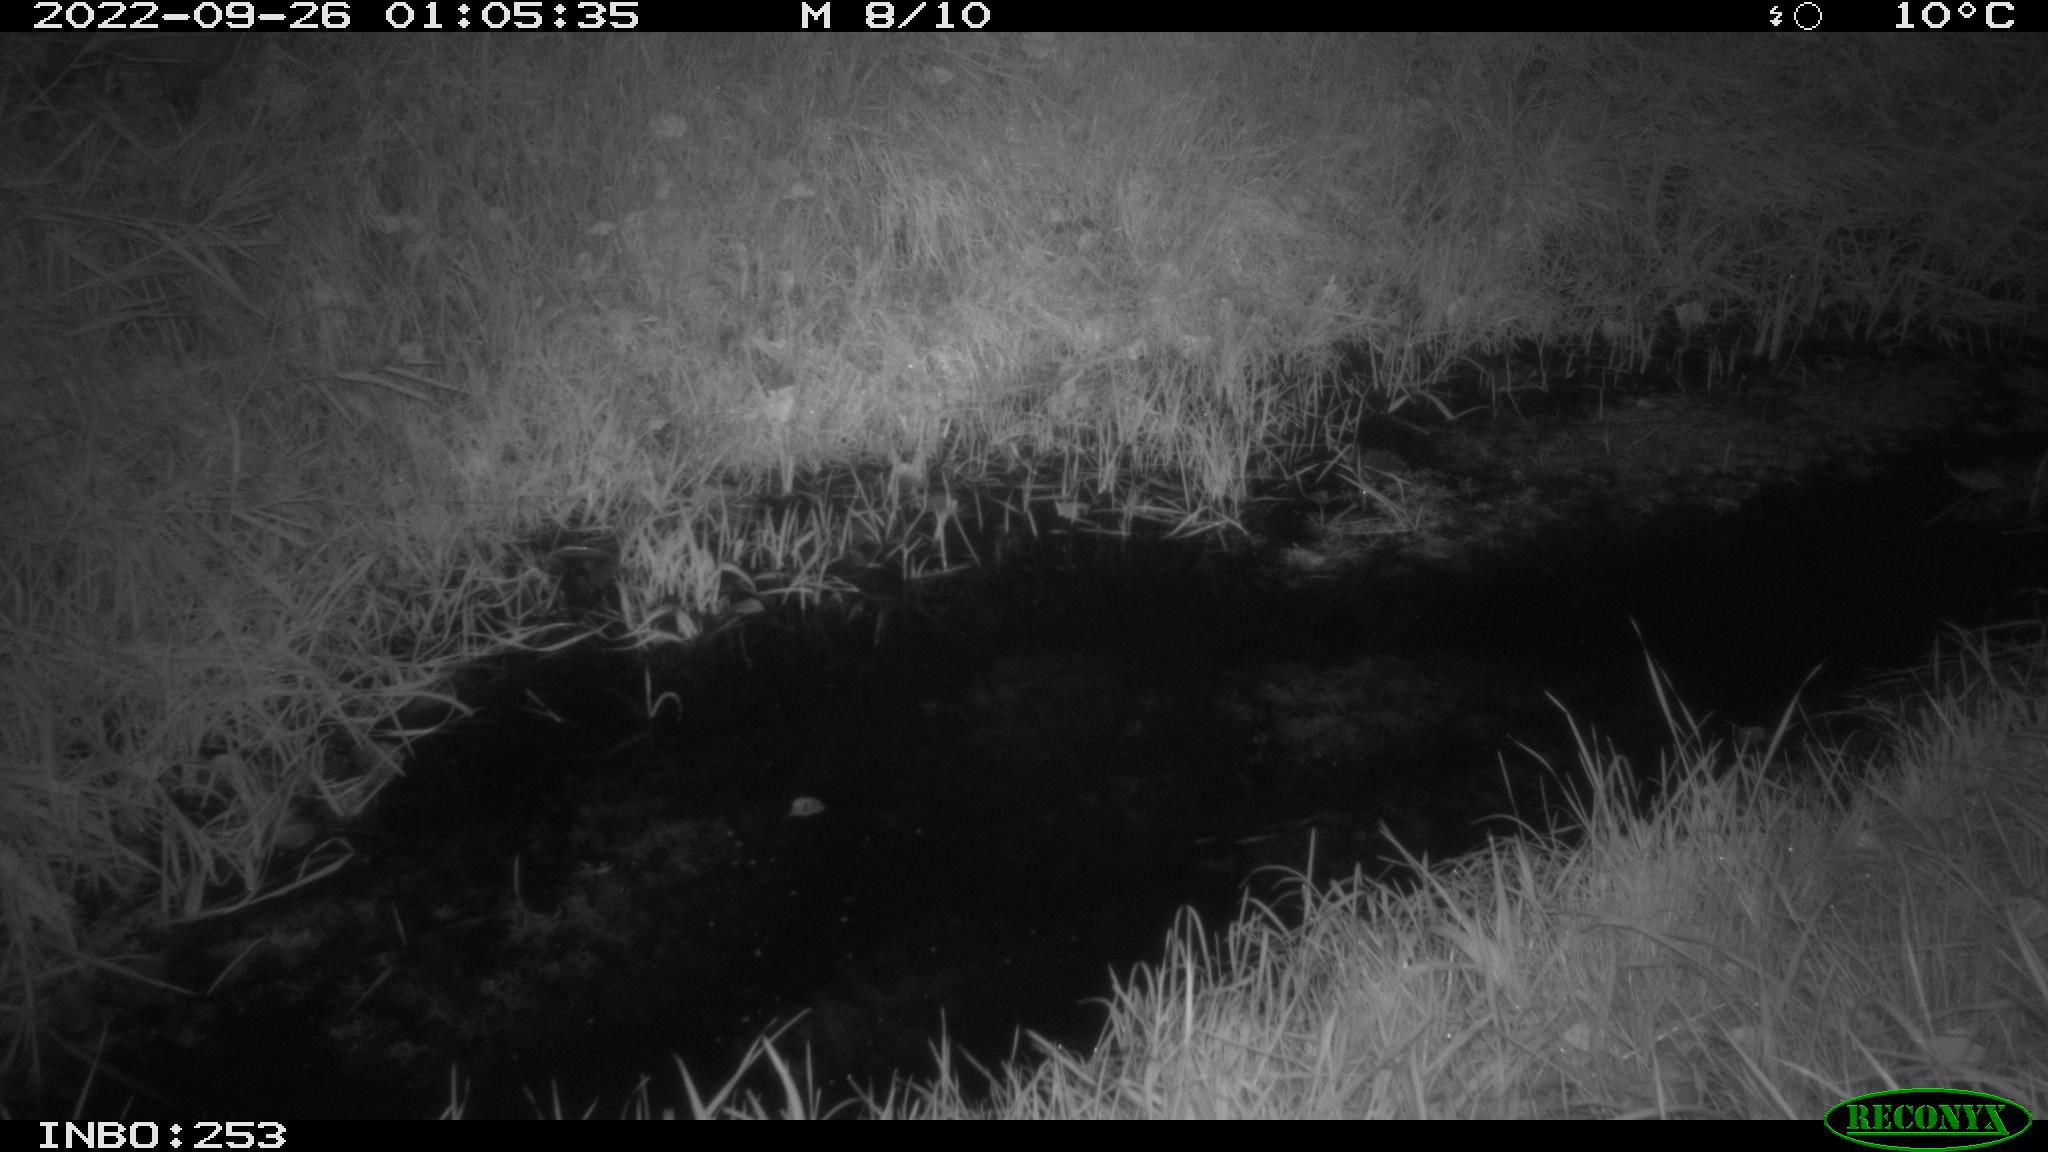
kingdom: Animalia
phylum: Chordata
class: Mammalia
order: Carnivora
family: Mustelidae
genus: Martes
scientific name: Martes foina
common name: Beech marten
